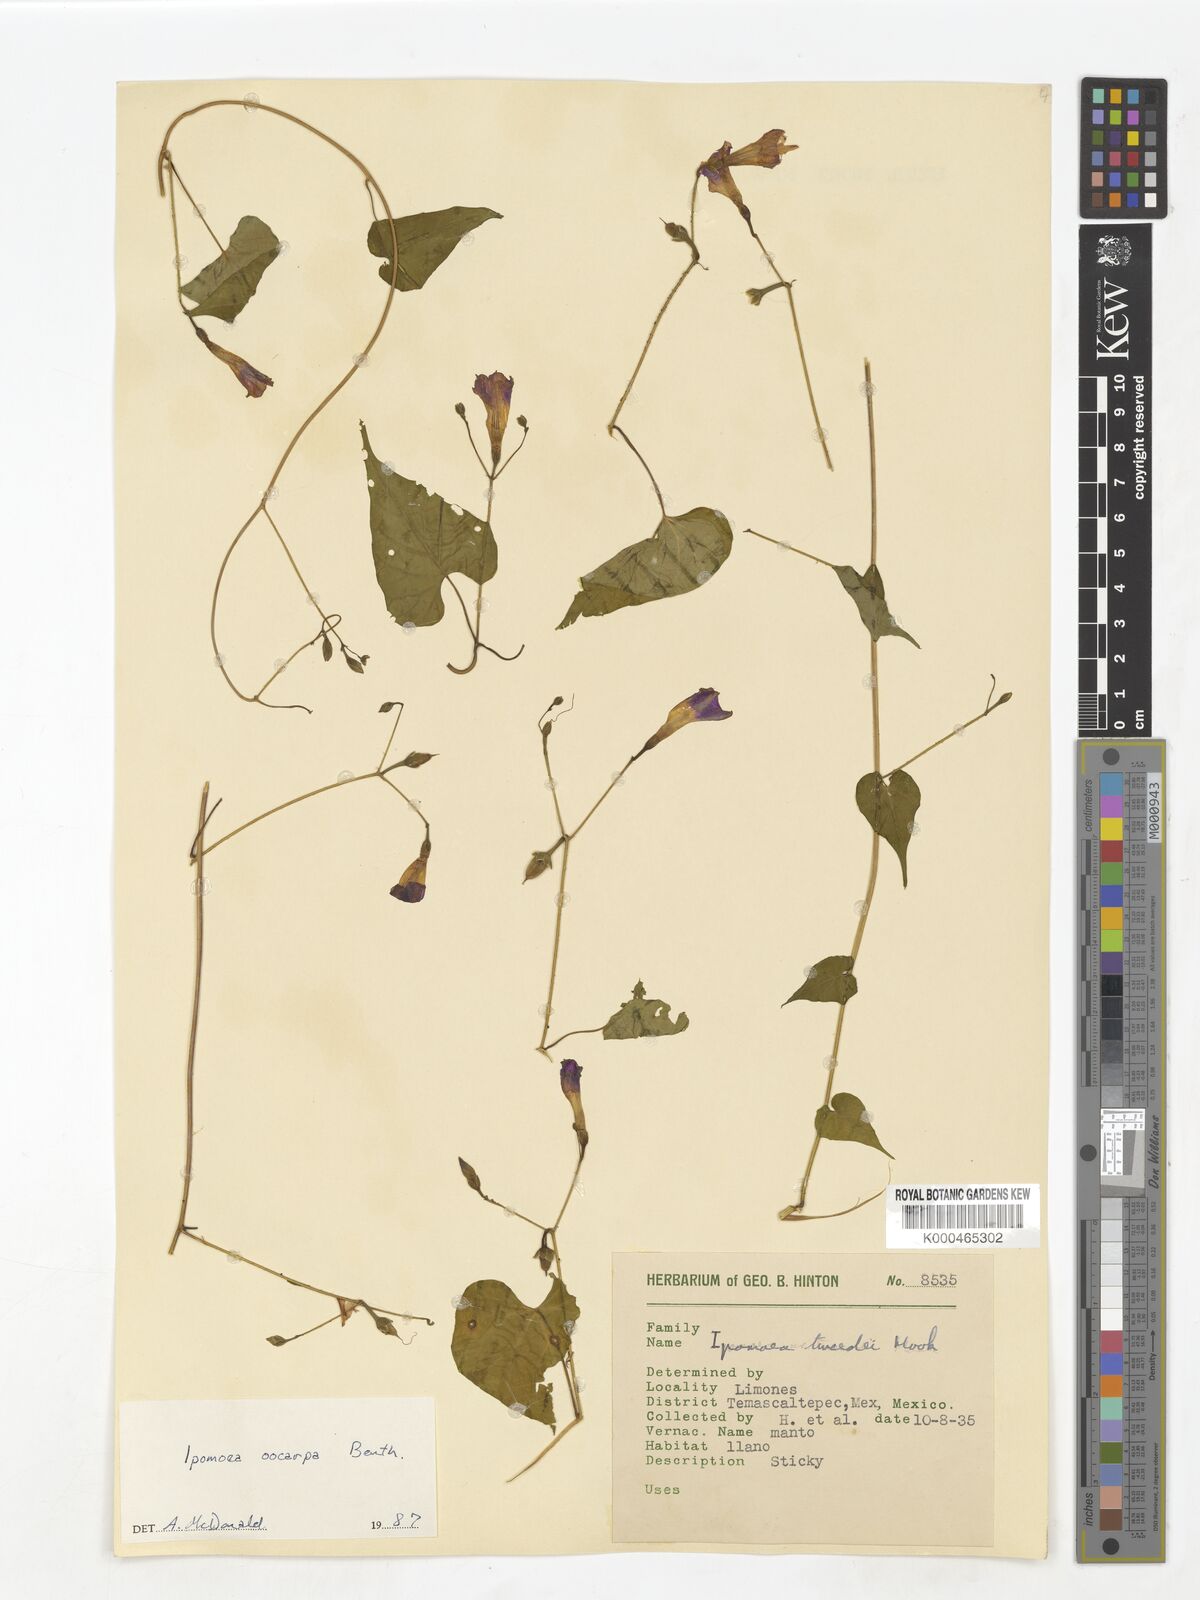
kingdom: Plantae
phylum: Tracheophyta
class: Magnoliopsida
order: Solanales
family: Convolvulaceae
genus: Ipomoea
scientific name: Ipomoea aristolochiifolia
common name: Aristolochia-leaved morning-glory
